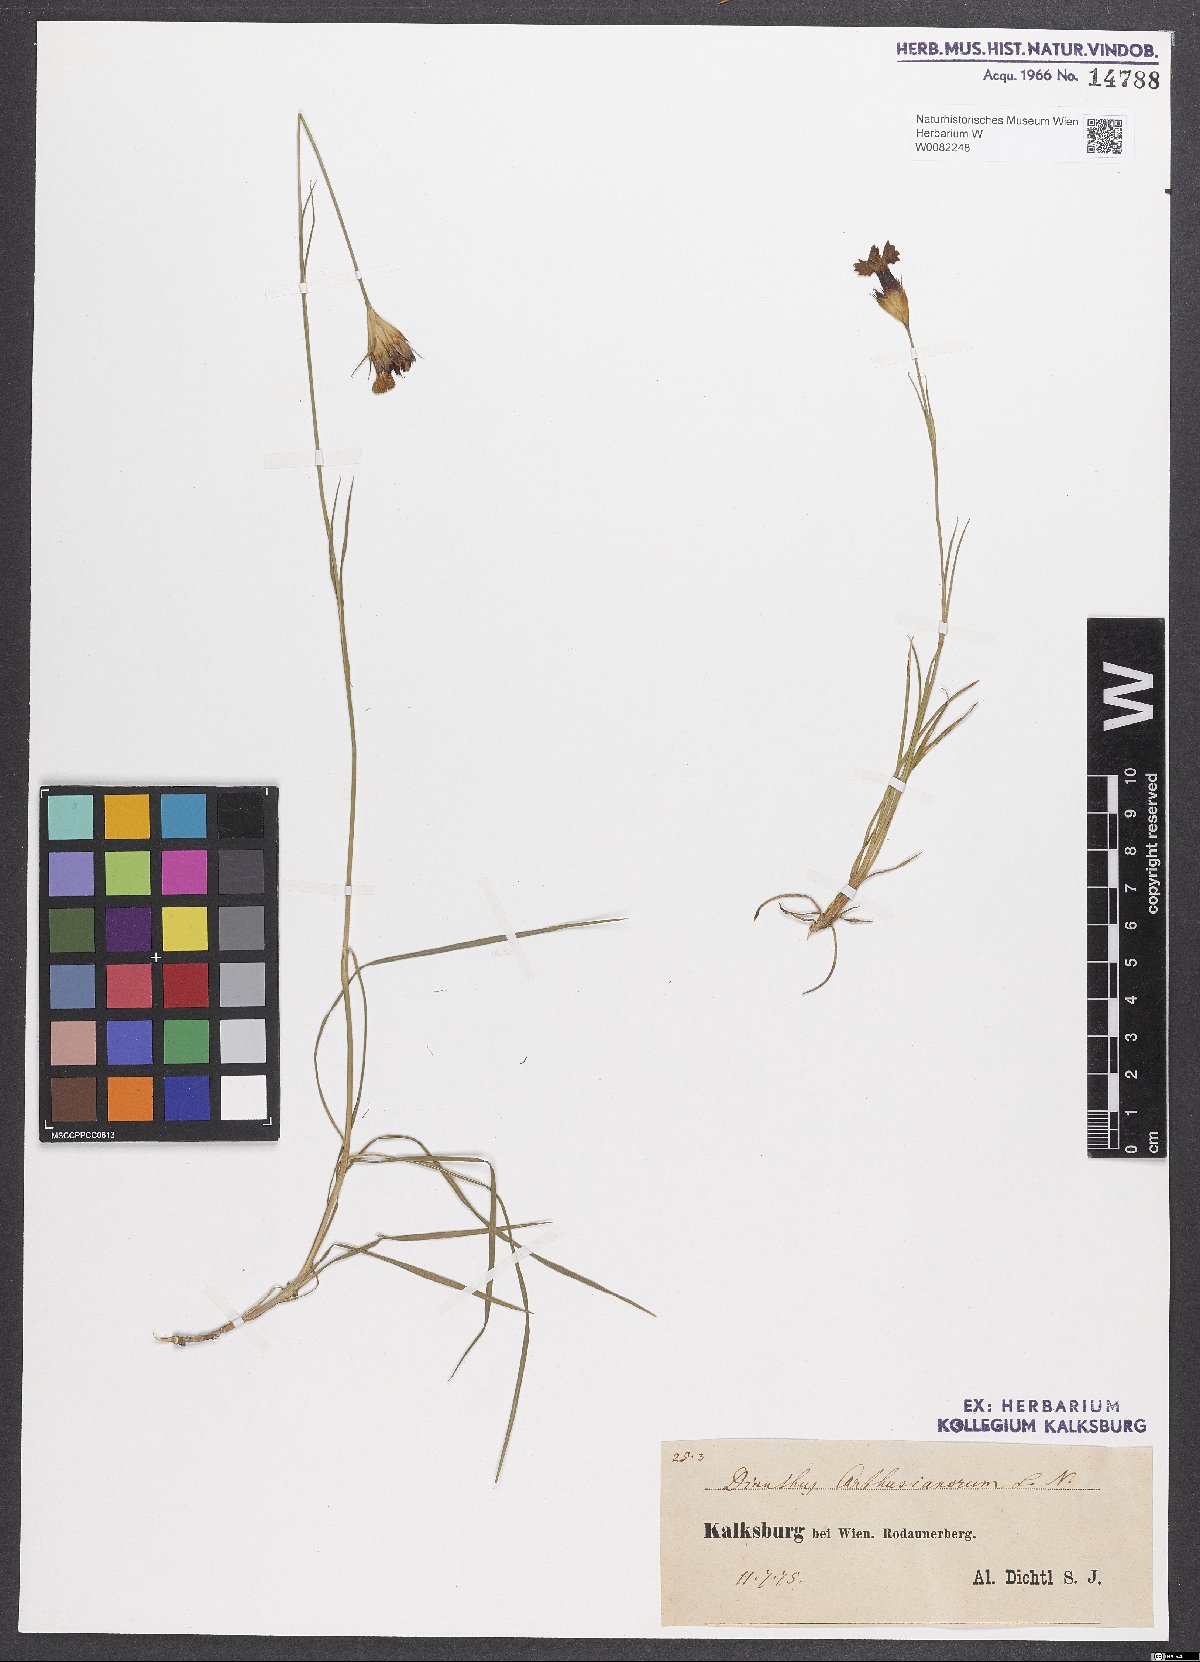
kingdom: Plantae
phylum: Tracheophyta
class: Magnoliopsida
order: Caryophyllales
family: Caryophyllaceae
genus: Dianthus
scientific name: Dianthus carthusianorum
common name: Carthusian pink
